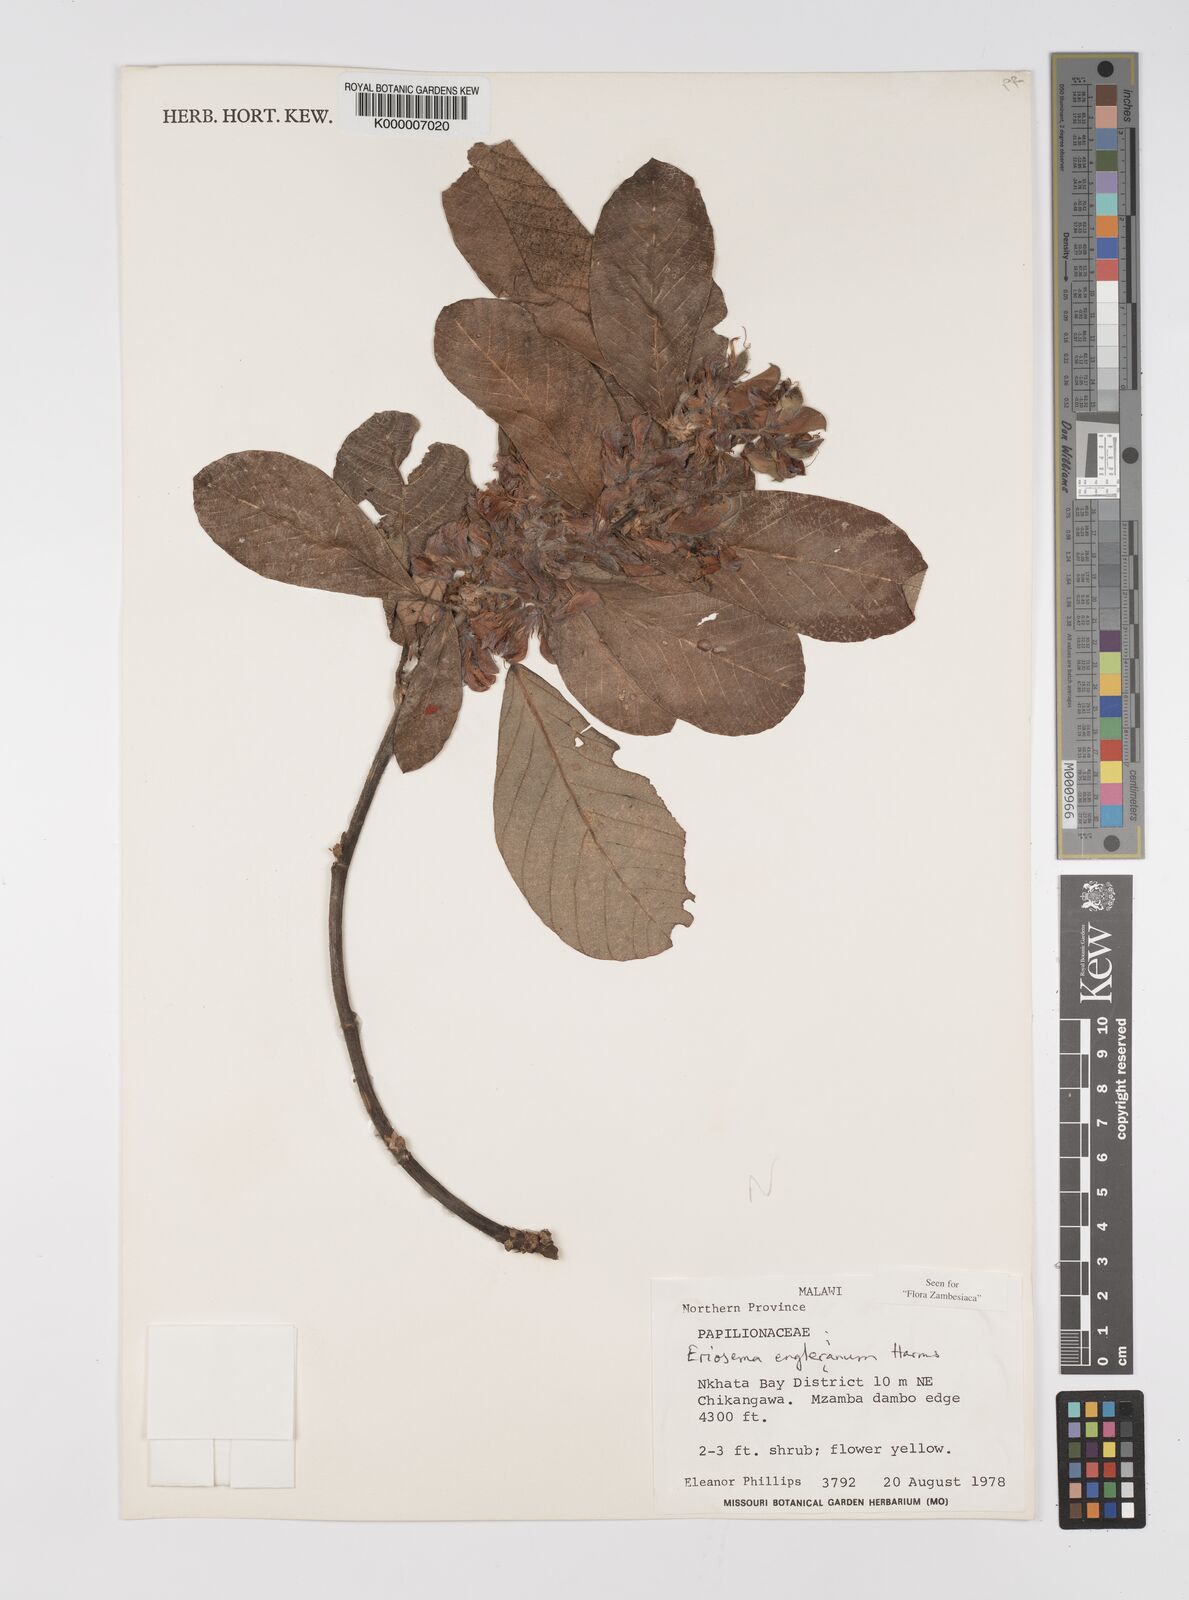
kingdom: Plantae
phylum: Tracheophyta
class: Magnoliopsida
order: Fabales
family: Fabaceae
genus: Eriosema
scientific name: Eriosema englerianum
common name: Blue bush
